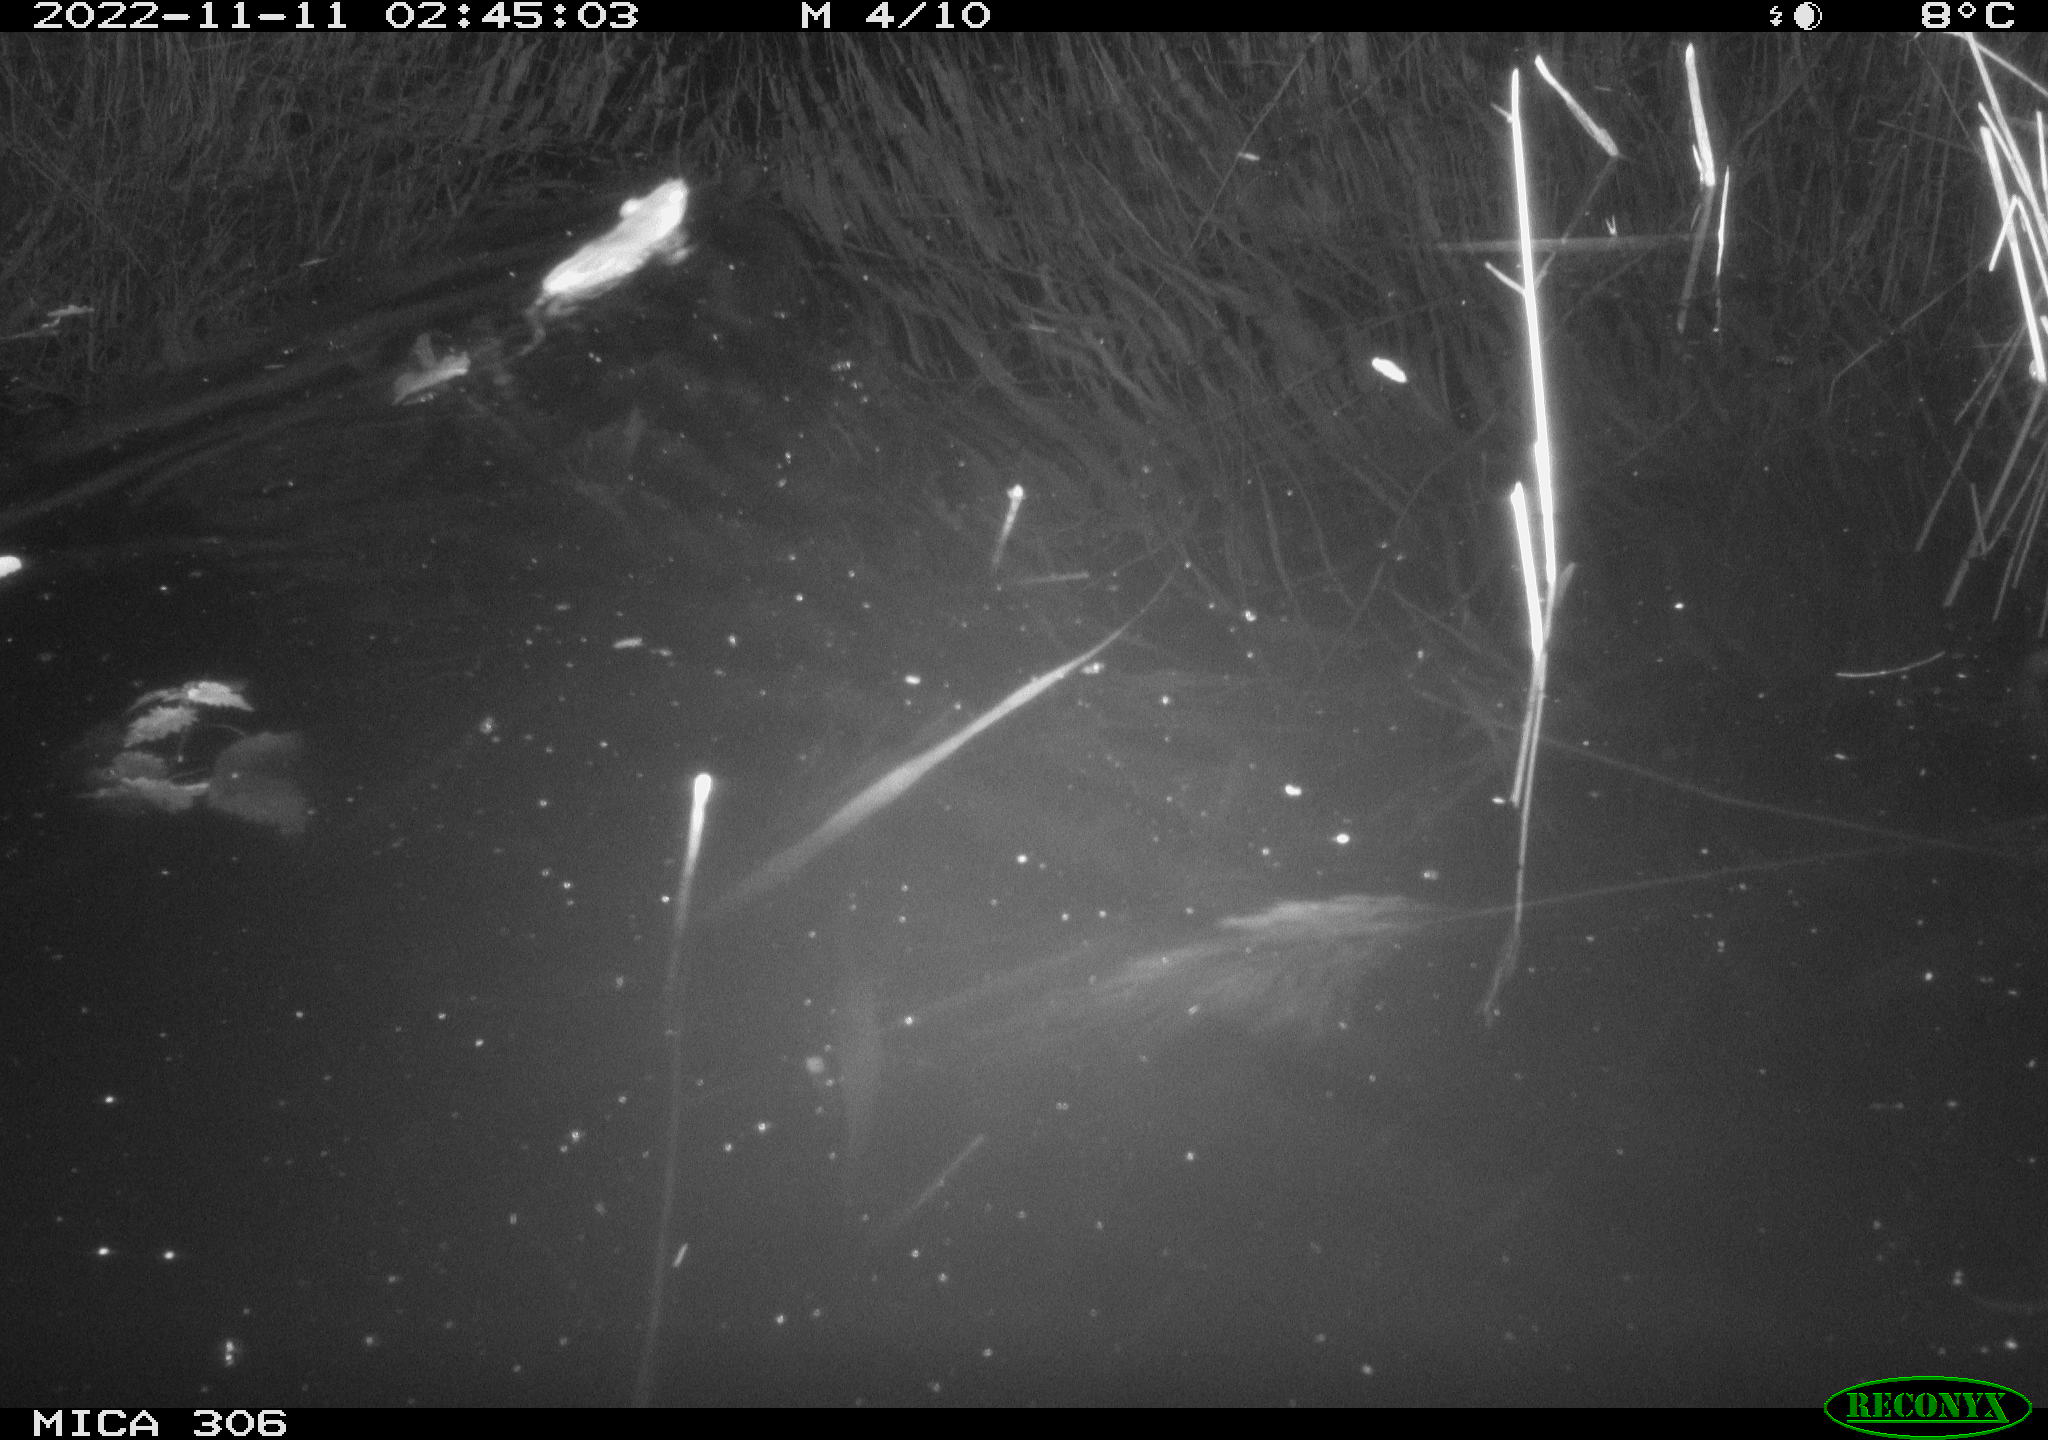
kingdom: Animalia
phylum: Chordata
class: Mammalia
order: Rodentia
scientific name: Rodentia
